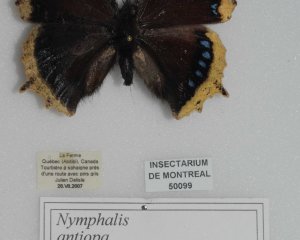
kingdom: Animalia
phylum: Arthropoda
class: Insecta
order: Lepidoptera
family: Nymphalidae
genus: Nymphalis
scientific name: Nymphalis antiopa
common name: Mourning Cloak
